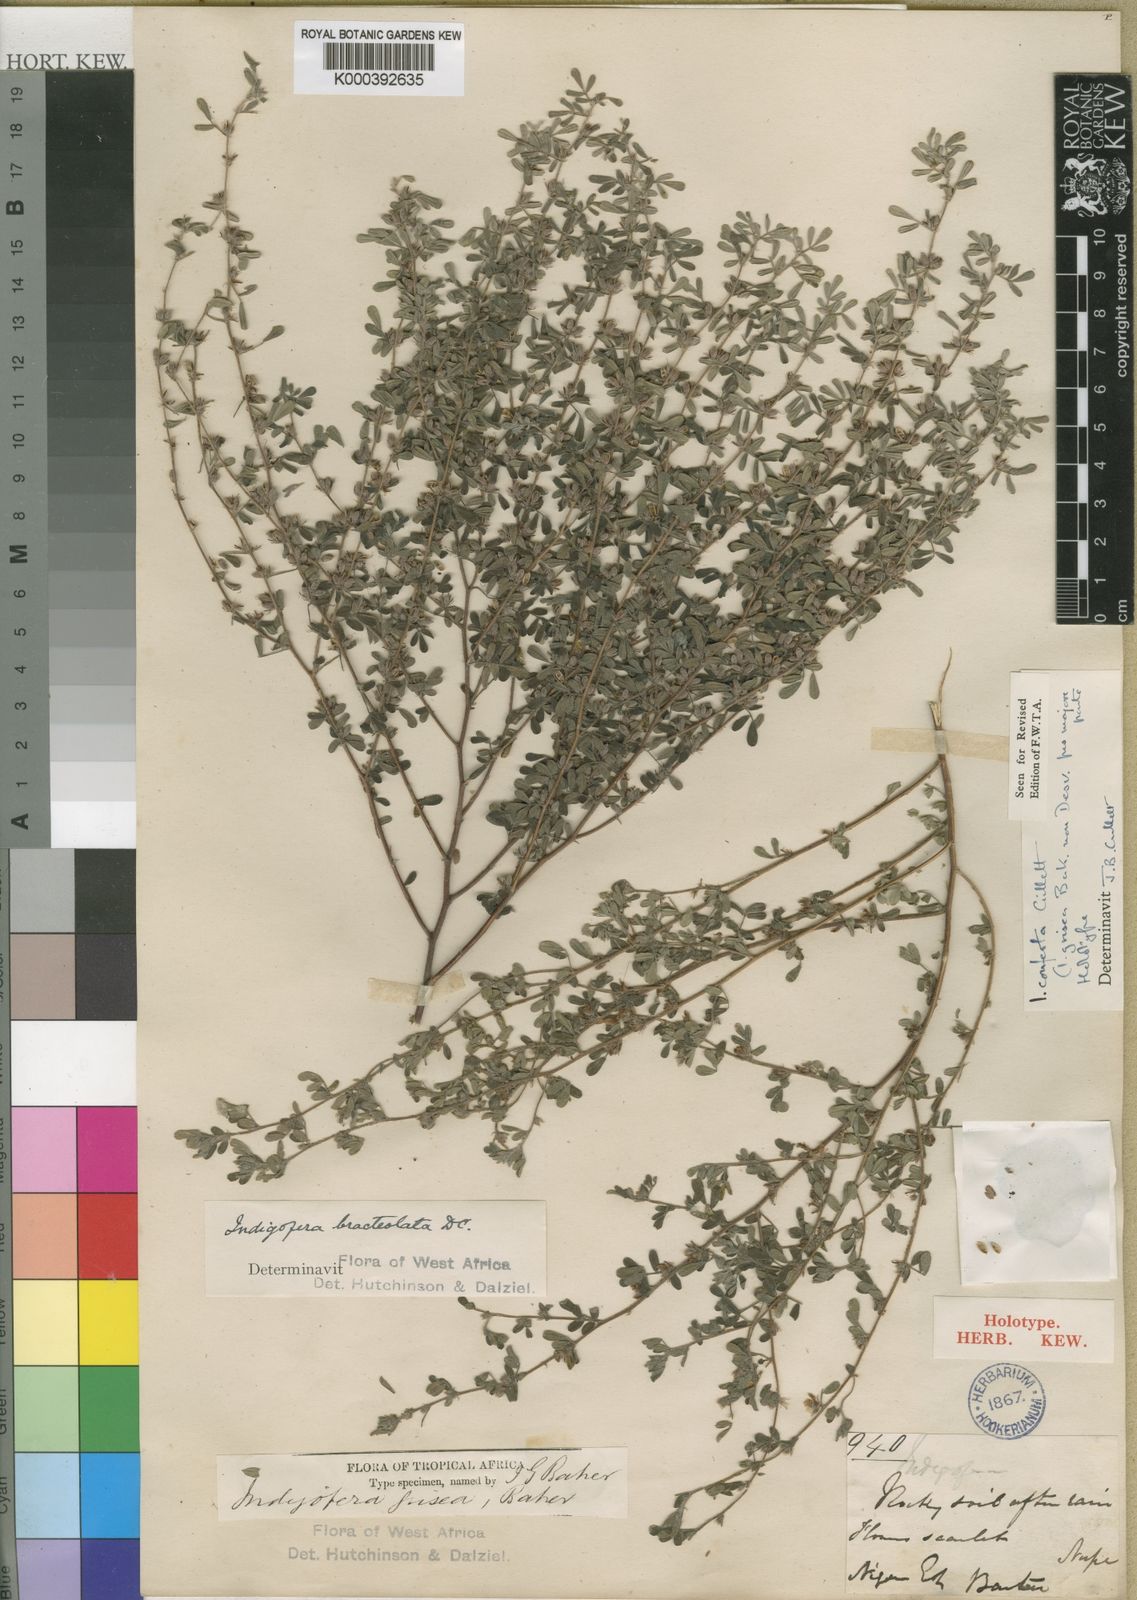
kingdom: Plantae
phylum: Tracheophyta
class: Magnoliopsida
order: Fabales
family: Fabaceae
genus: Indigofera
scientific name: Indigofera conferta
